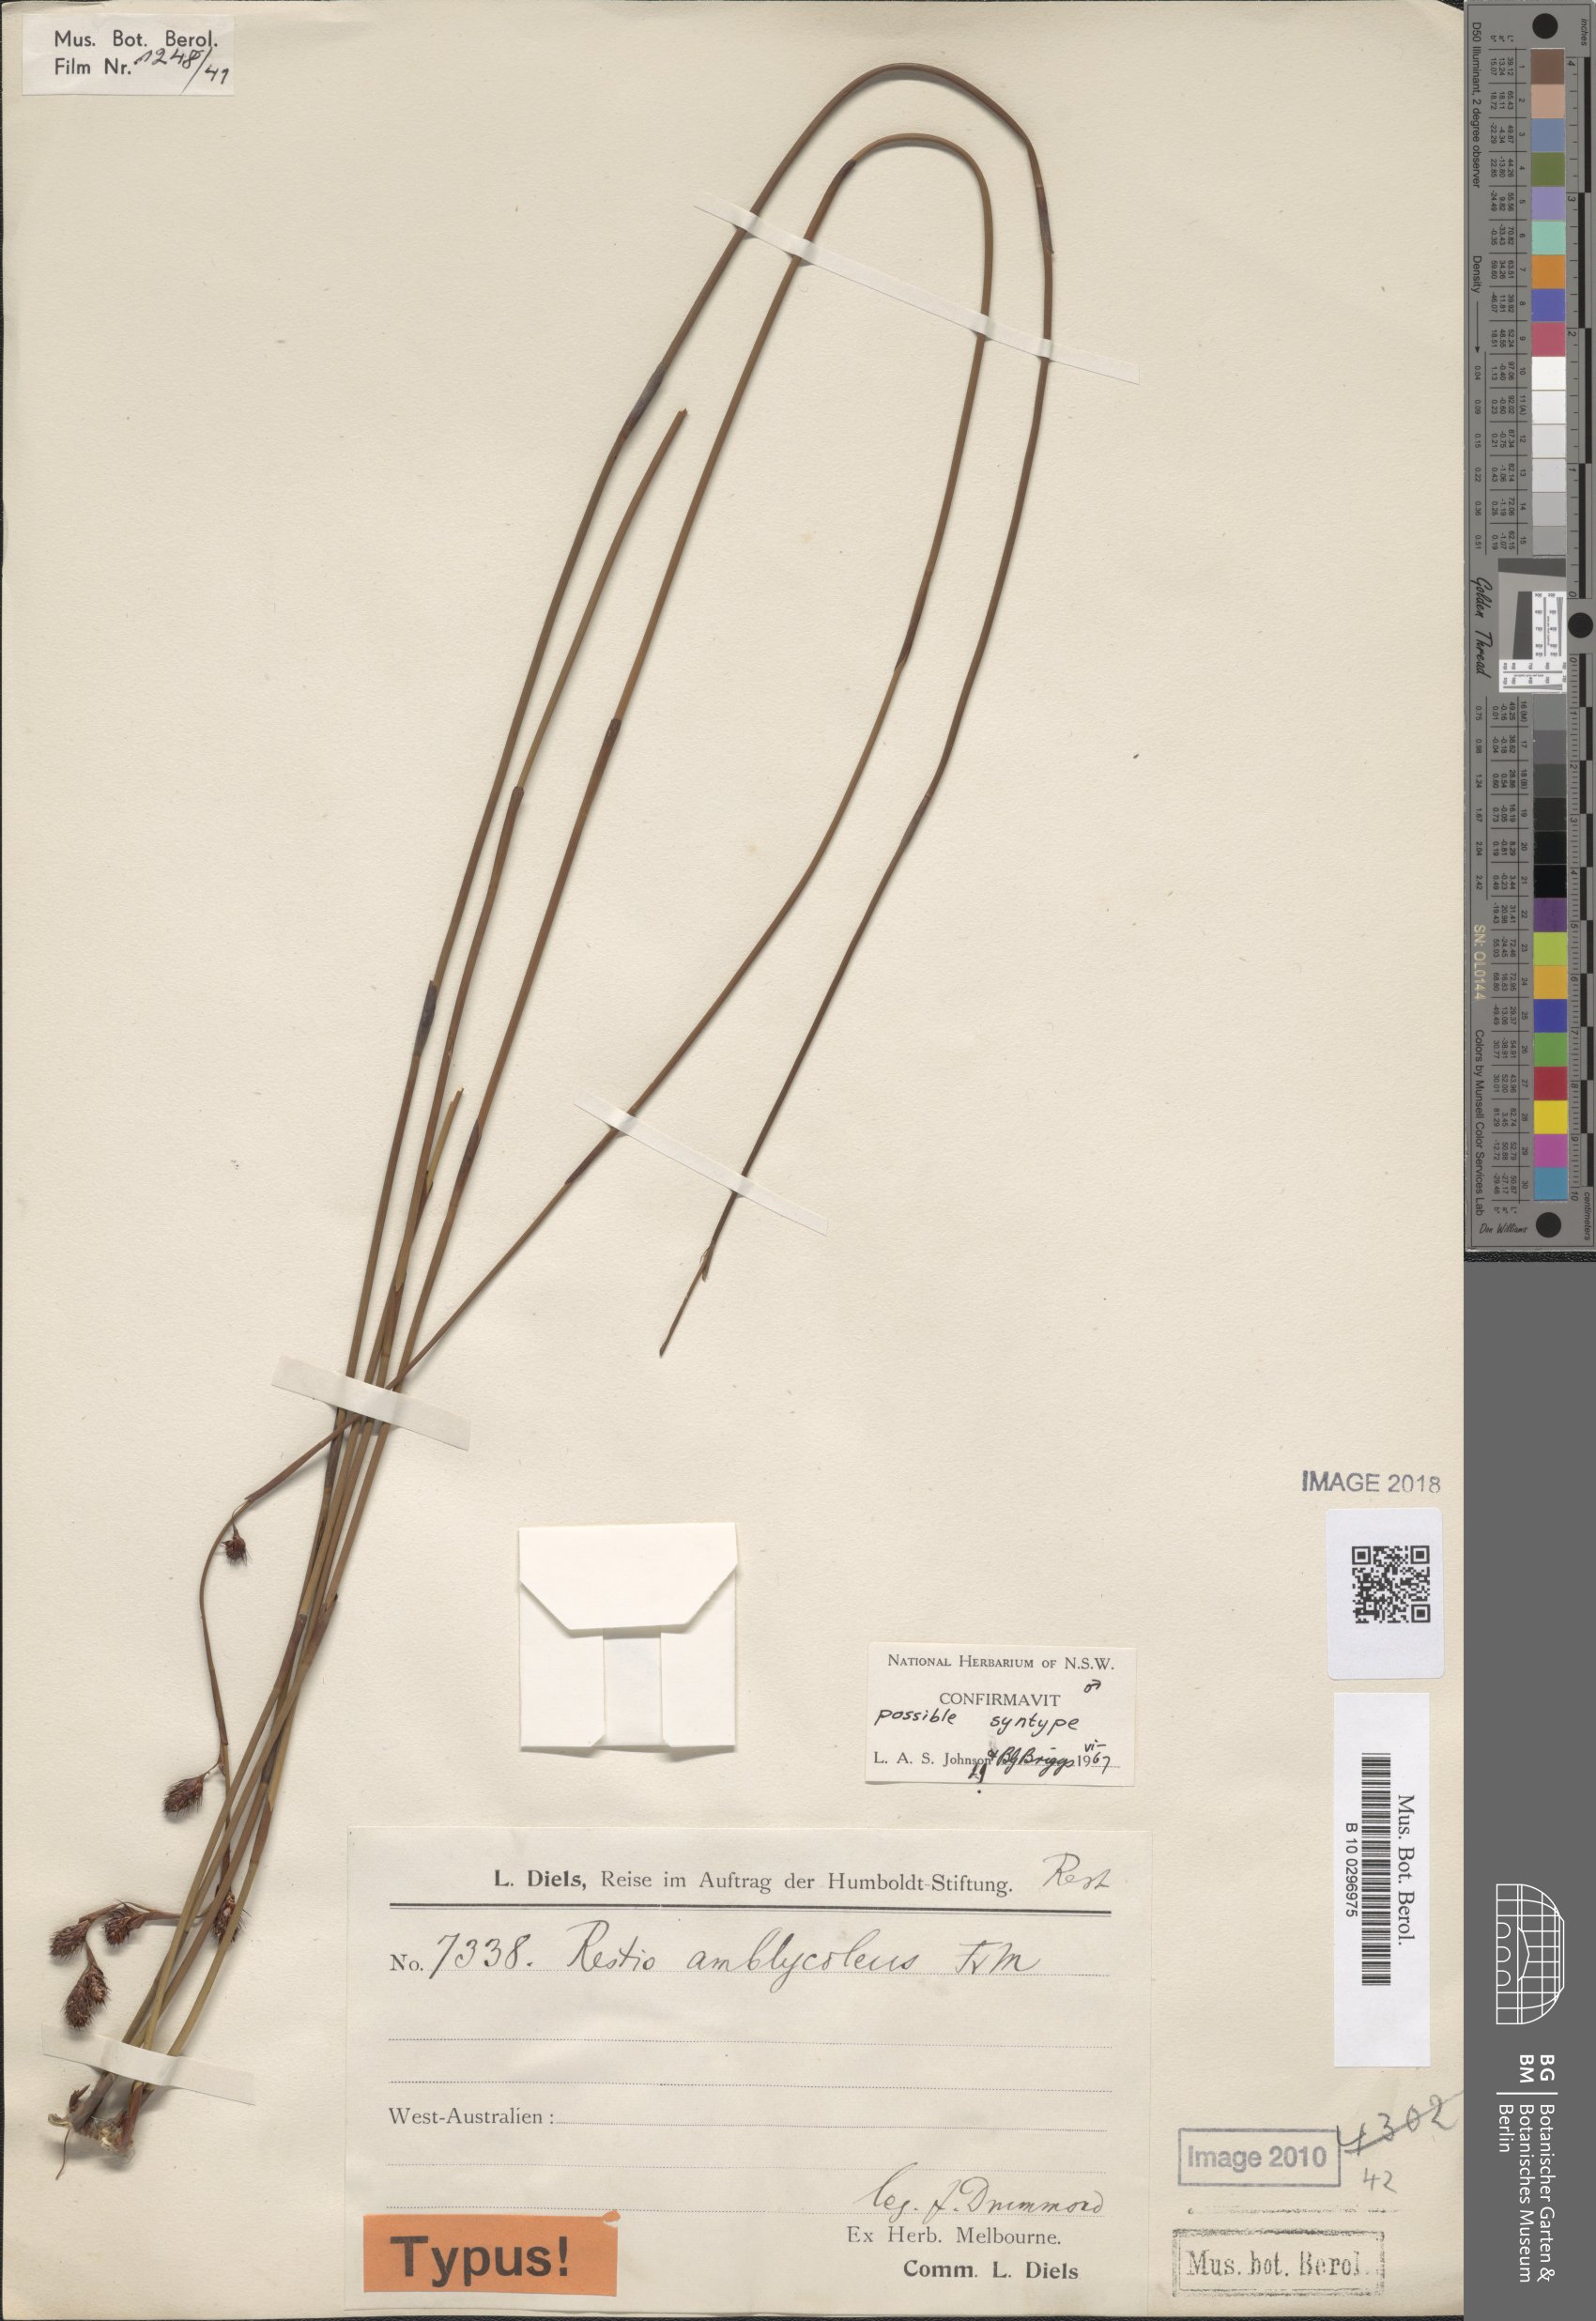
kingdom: Plantae
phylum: Tracheophyta
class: Liliopsida
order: Poales
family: Restionaceae
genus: Chordifex
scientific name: Chordifex amblycoleus
